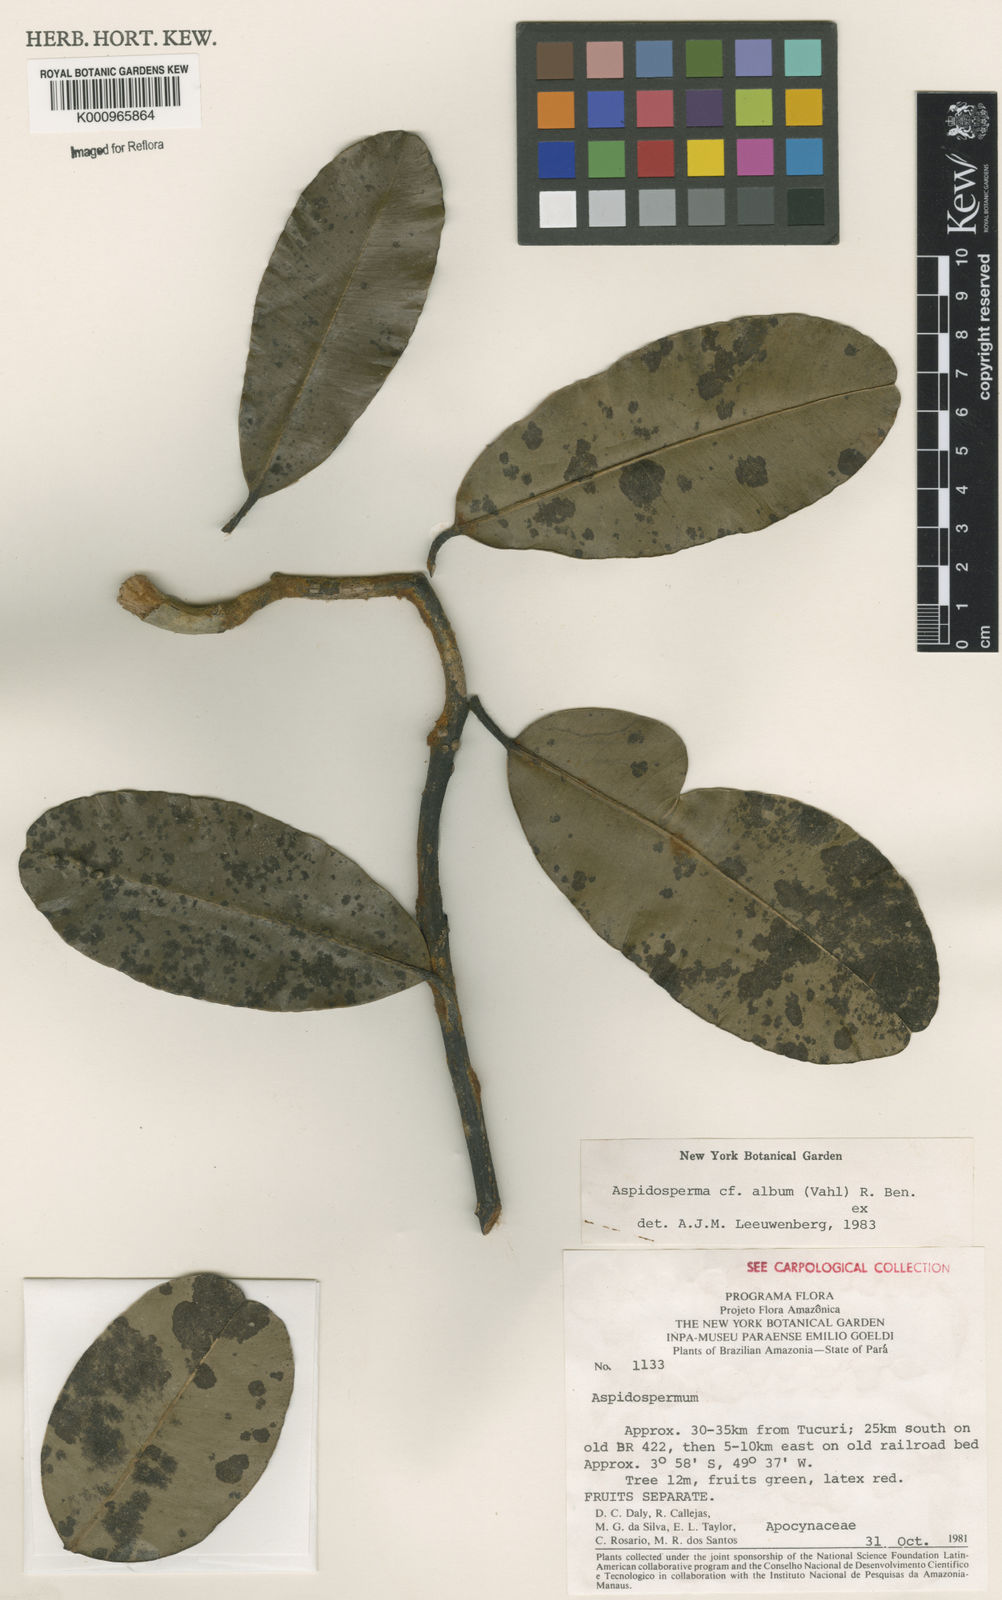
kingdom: Plantae
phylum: Tracheophyta
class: Magnoliopsida
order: Gentianales
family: Apocynaceae
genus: Aspidosperma
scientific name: Aspidosperma album
